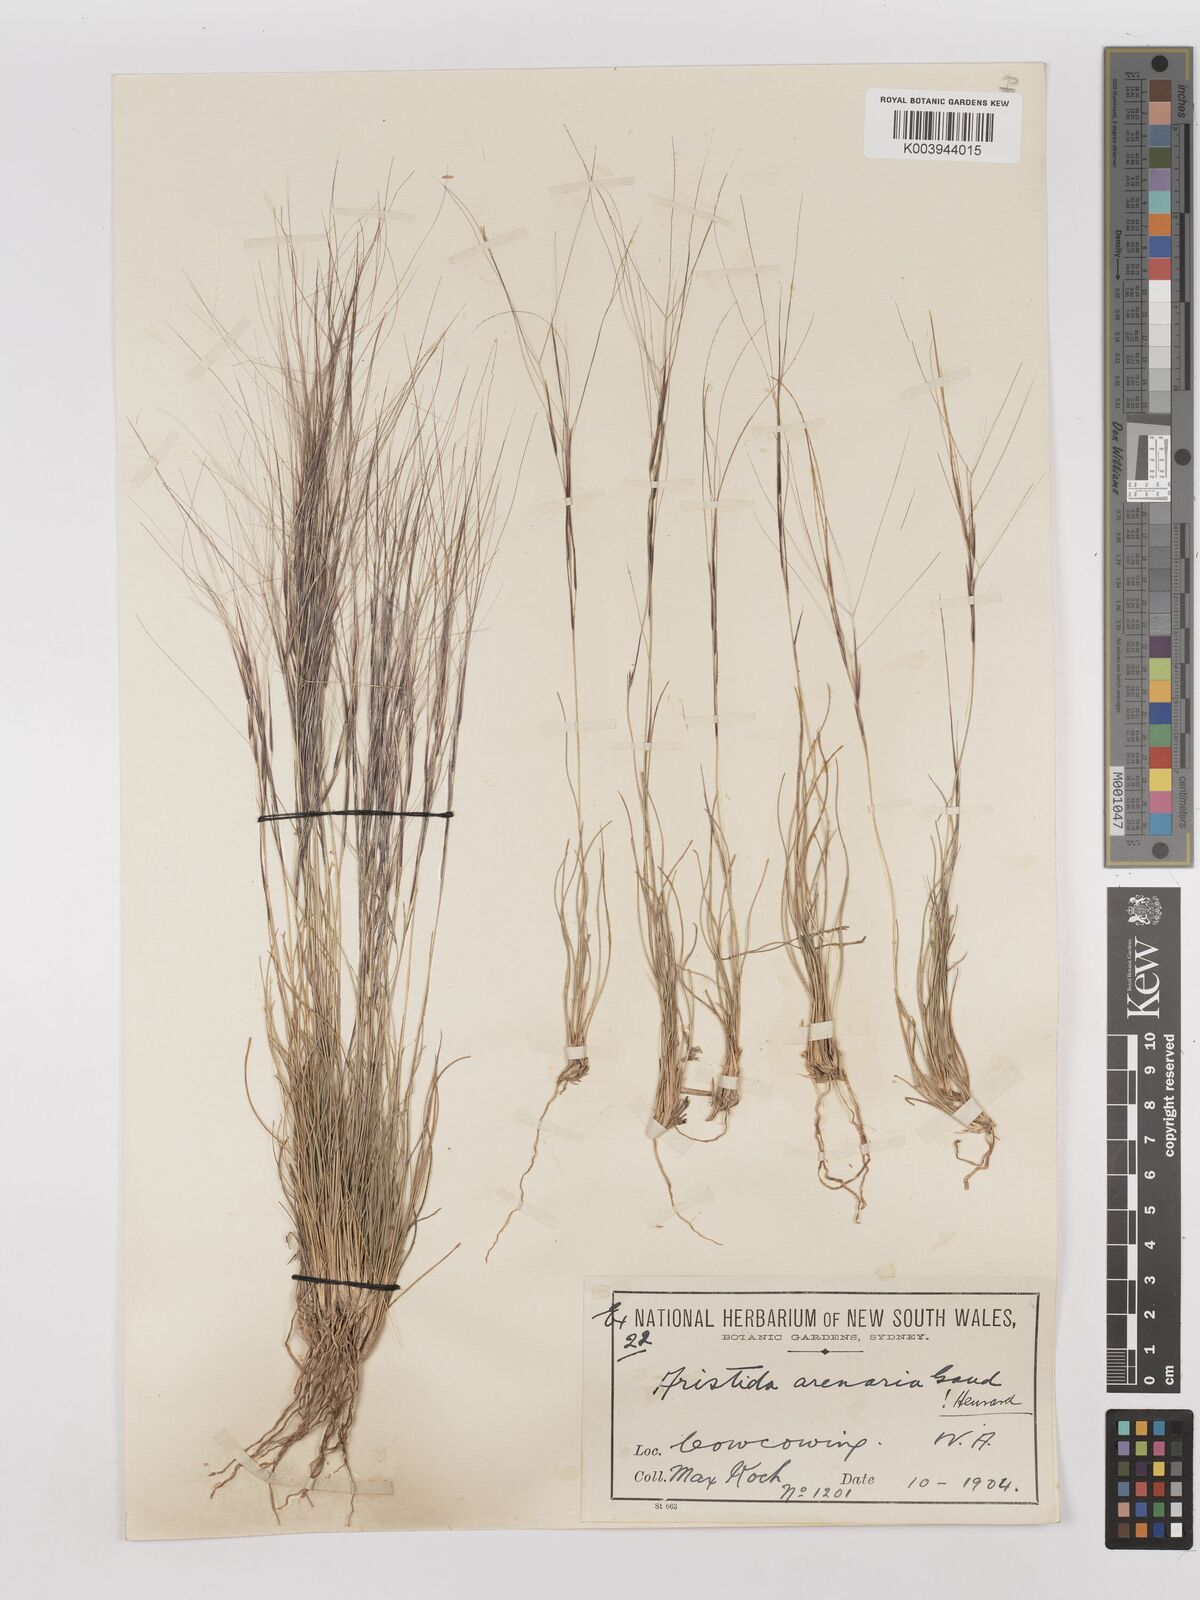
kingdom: Plantae
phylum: Tracheophyta
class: Liliopsida
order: Poales
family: Poaceae
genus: Aristida
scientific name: Aristida contorta
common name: Bunch kerosene grass
